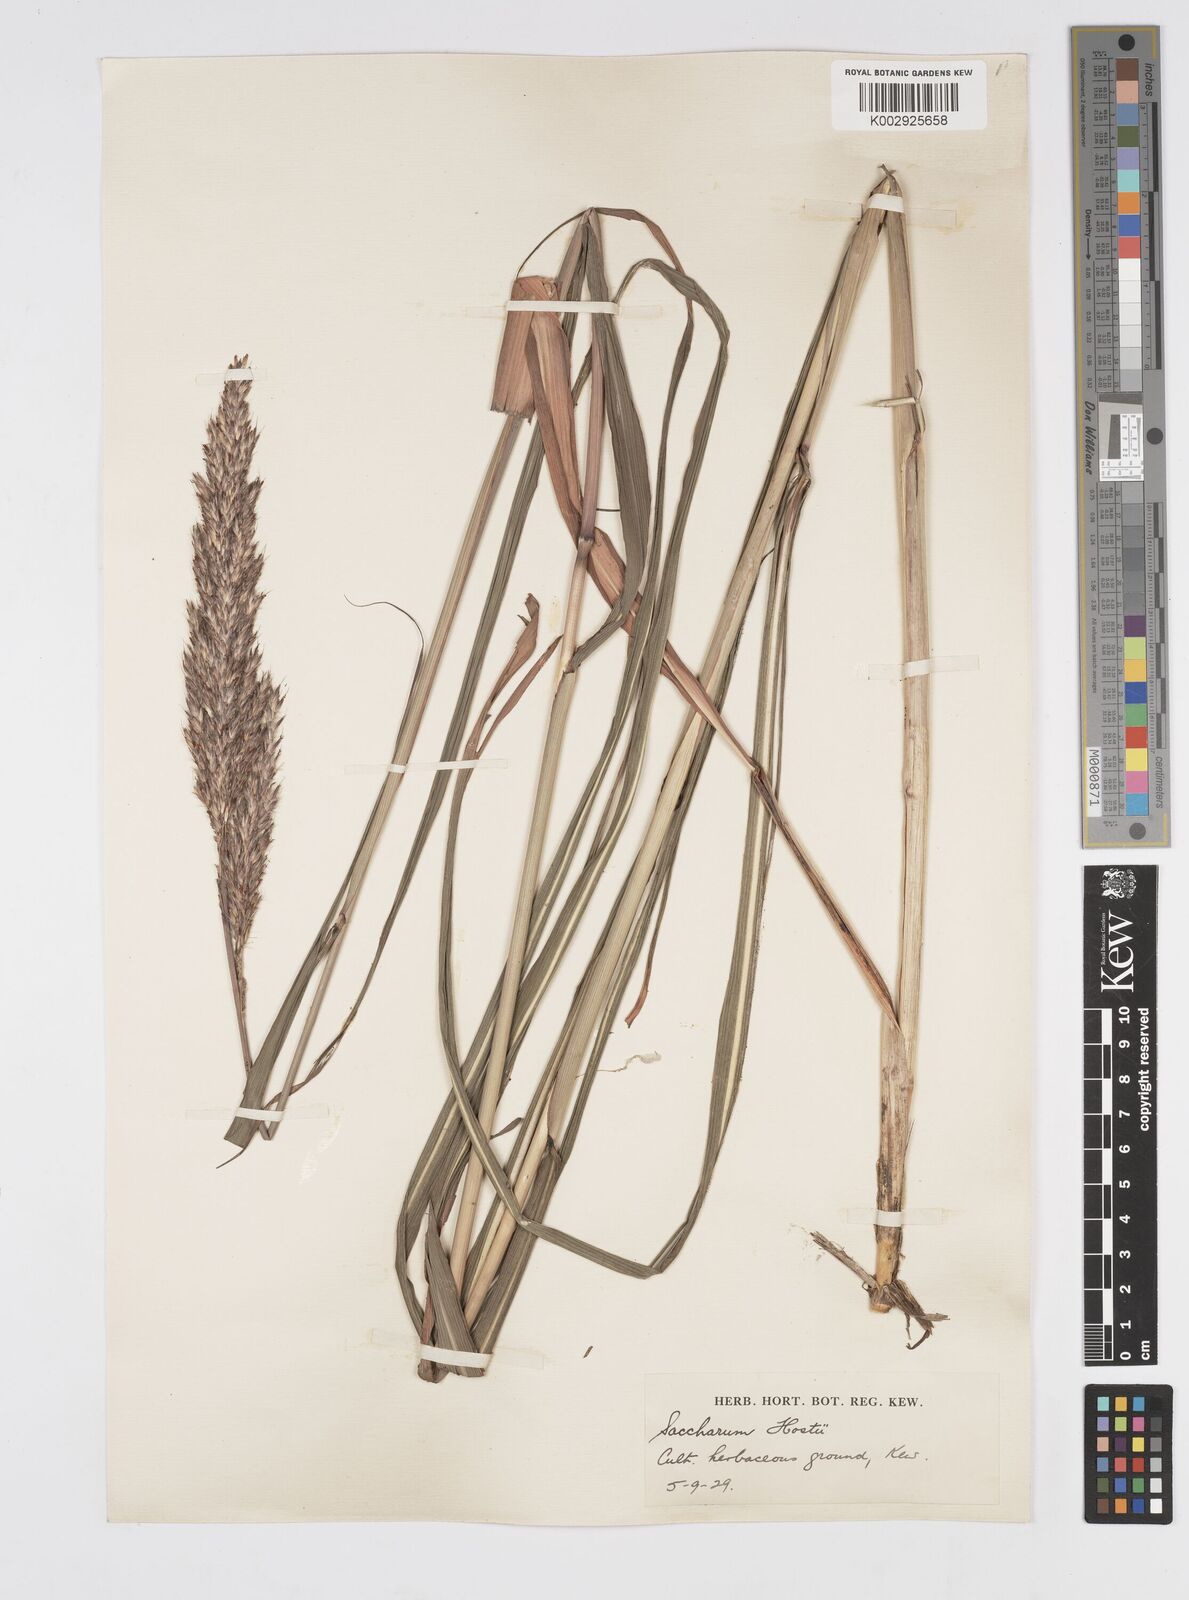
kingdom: Plantae
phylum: Tracheophyta
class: Liliopsida
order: Poales
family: Poaceae
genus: Tripidium
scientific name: Tripidium strictum
